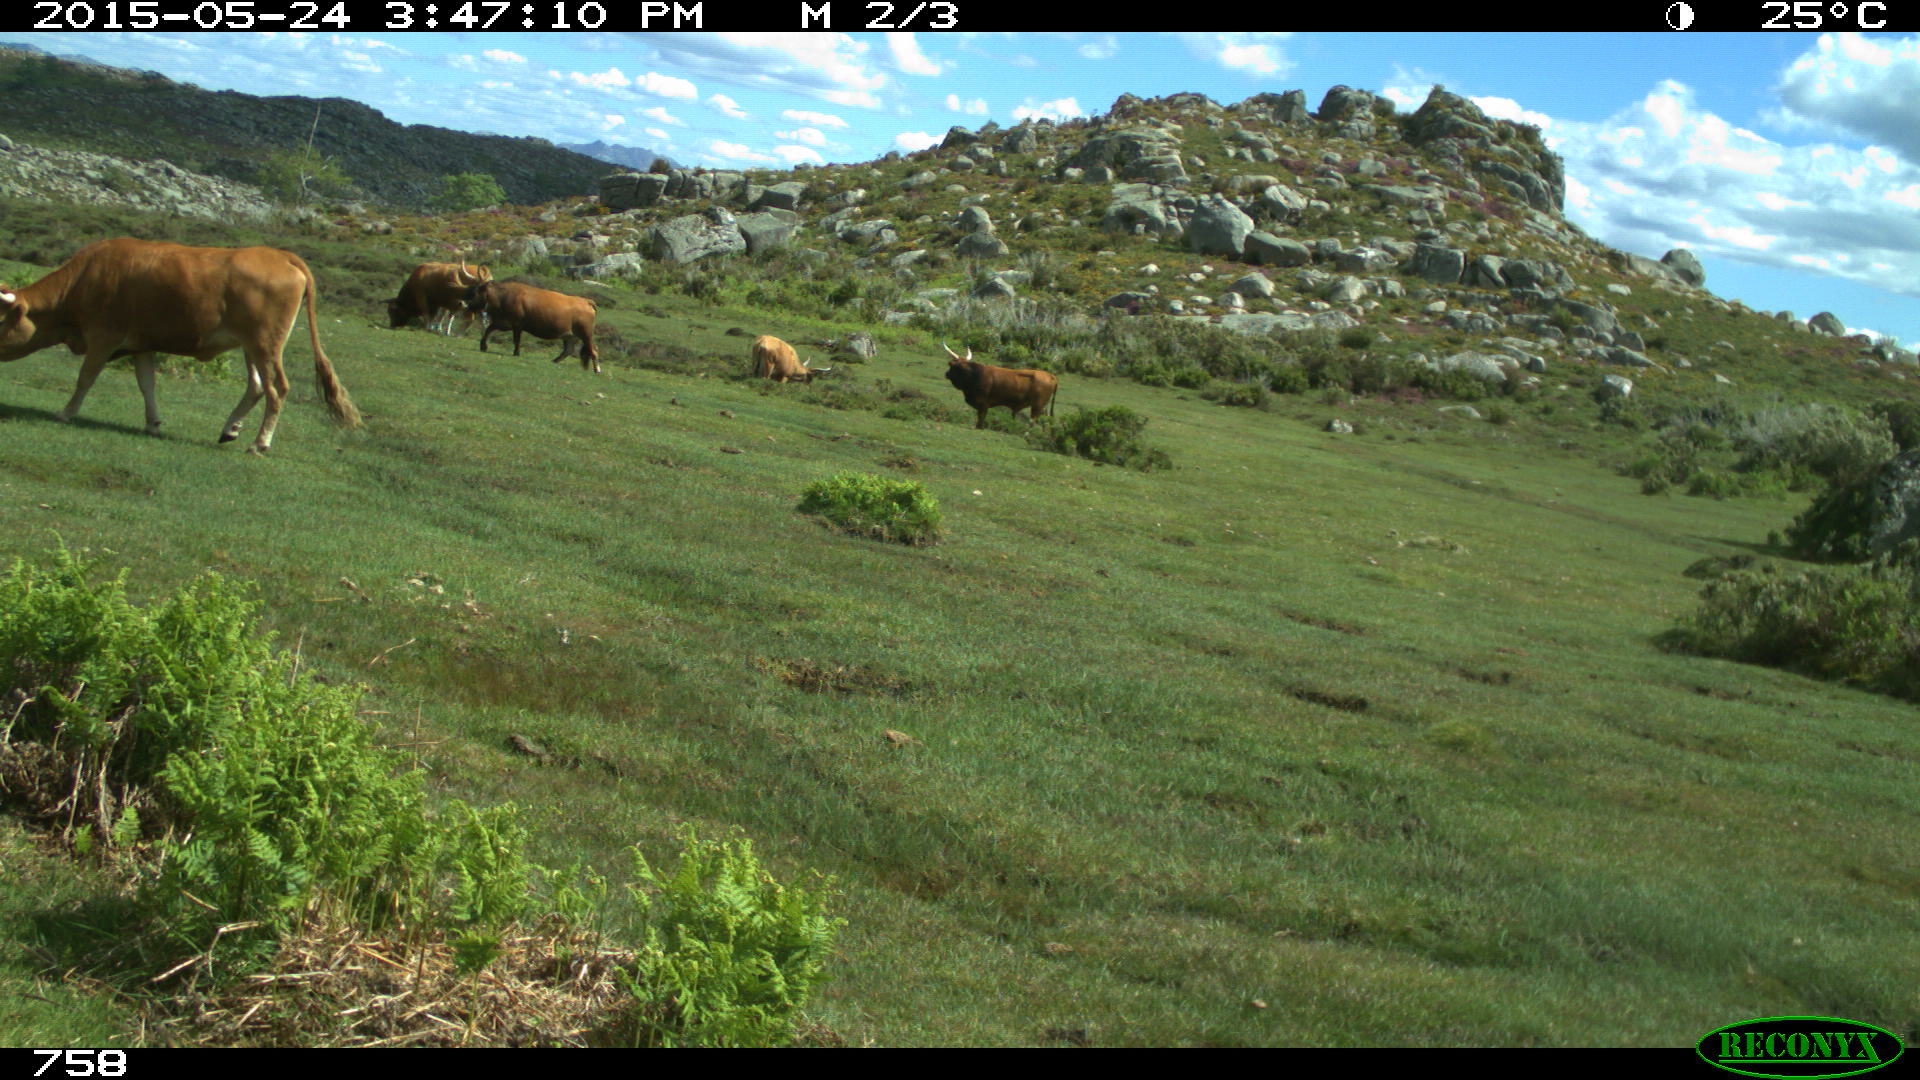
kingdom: Animalia
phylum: Chordata
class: Mammalia
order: Artiodactyla
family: Bovidae
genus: Bos
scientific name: Bos taurus
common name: Domesticated cattle
